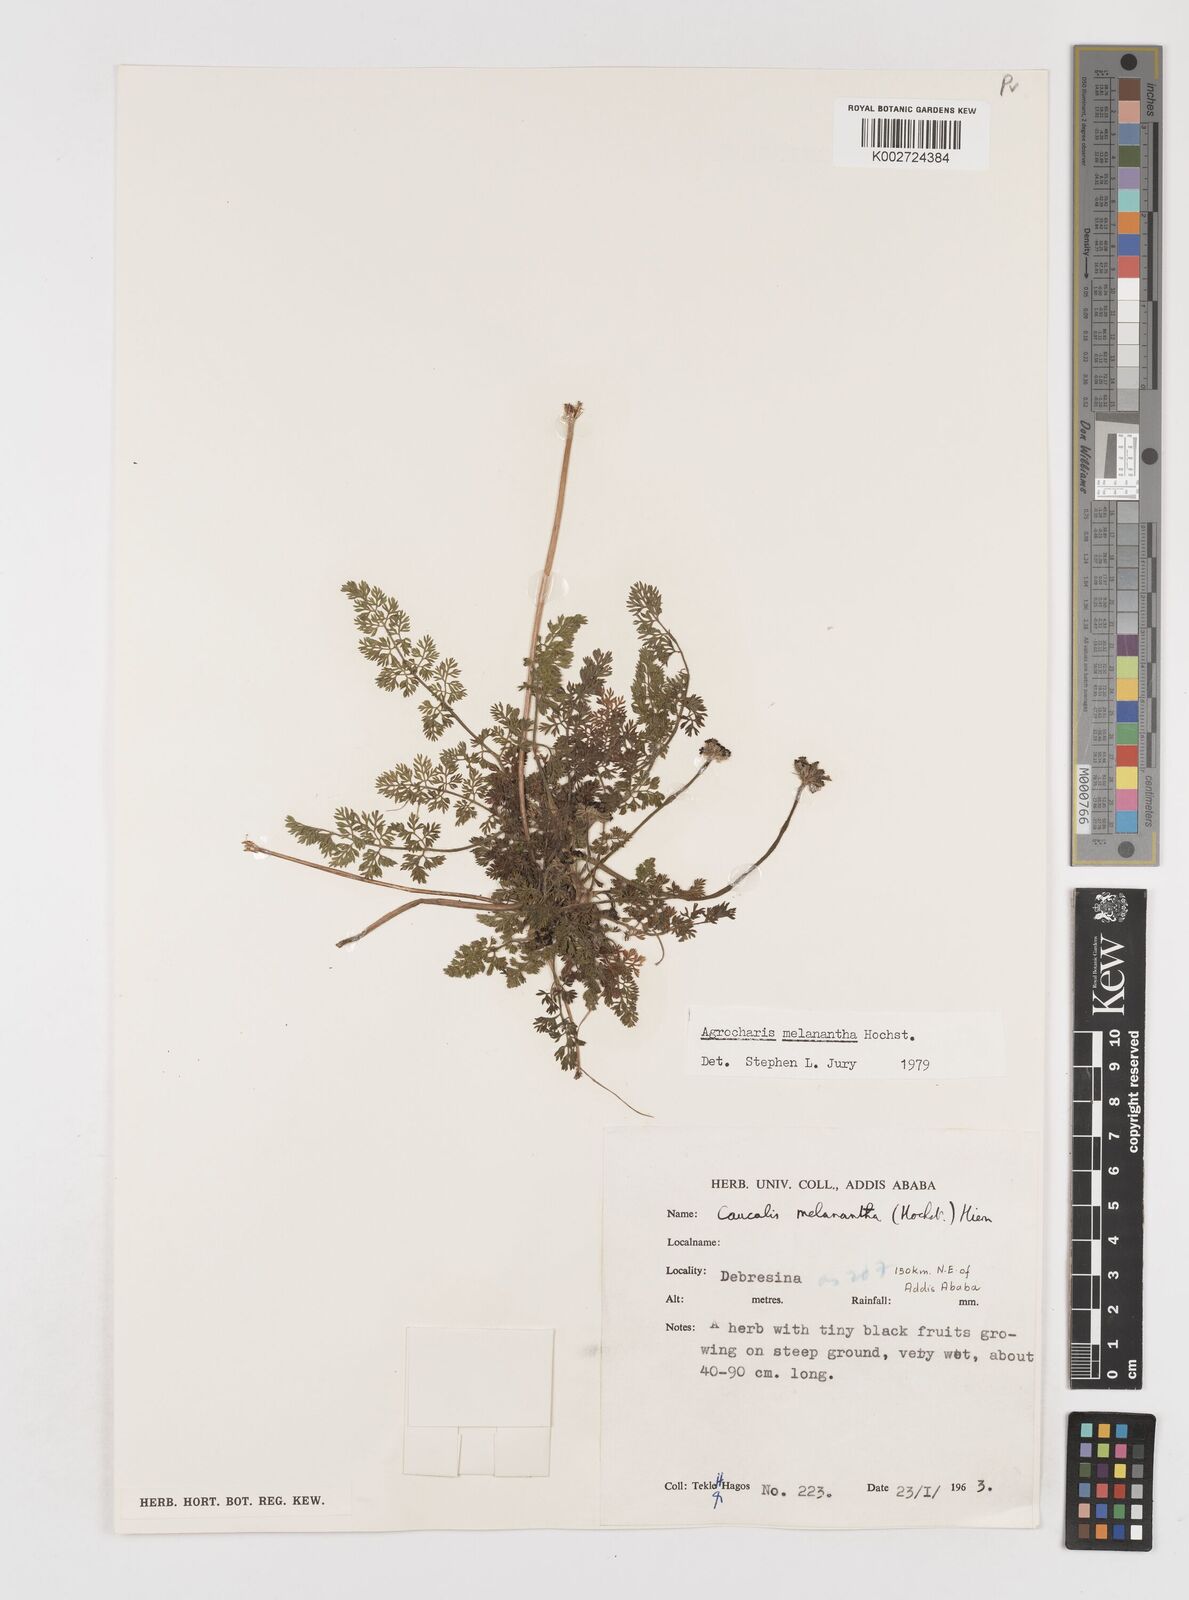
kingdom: Plantae
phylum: Tracheophyta
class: Magnoliopsida
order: Apiales
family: Apiaceae
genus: Daucus
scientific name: Daucus melananthus
